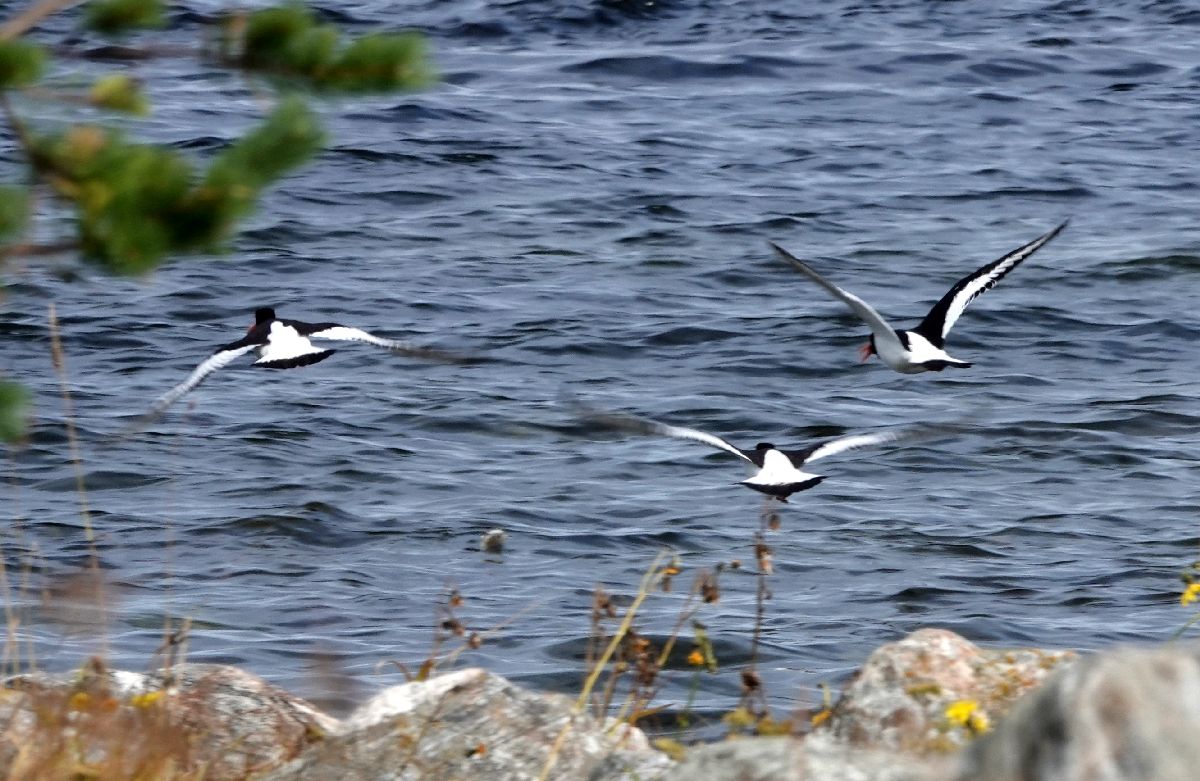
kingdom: Animalia
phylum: Chordata
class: Aves
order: Charadriiformes
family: Haematopodidae
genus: Haematopus
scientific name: Haematopus ostralegus
